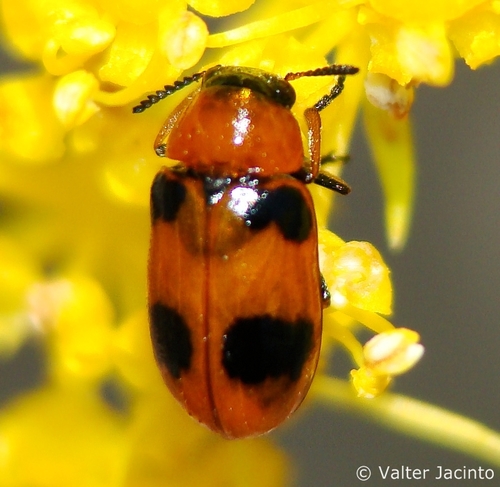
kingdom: Animalia
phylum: Arthropoda
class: Insecta
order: Coleoptera
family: Chrysomelidae
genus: Coptocephala
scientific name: Coptocephala scopolina
